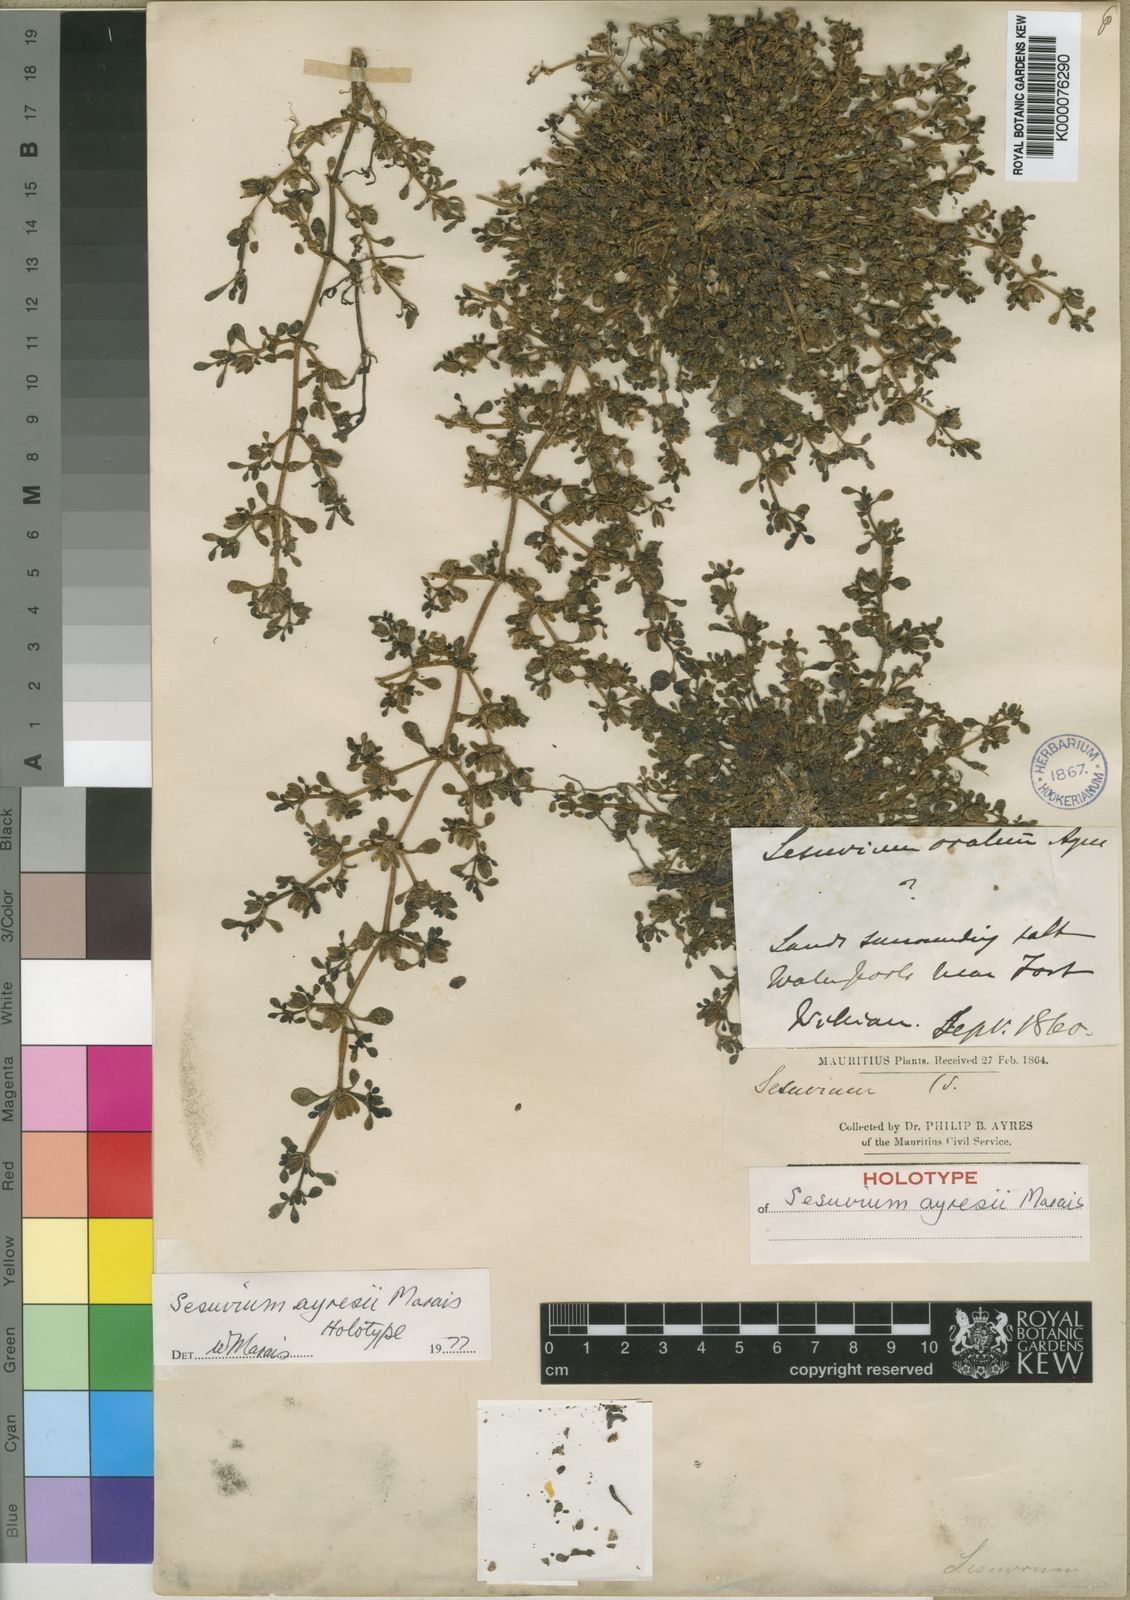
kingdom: Plantae
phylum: Tracheophyta
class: Magnoliopsida
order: Caryophyllales
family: Aizoaceae
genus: Sesuvium
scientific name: Sesuvium ayresii
